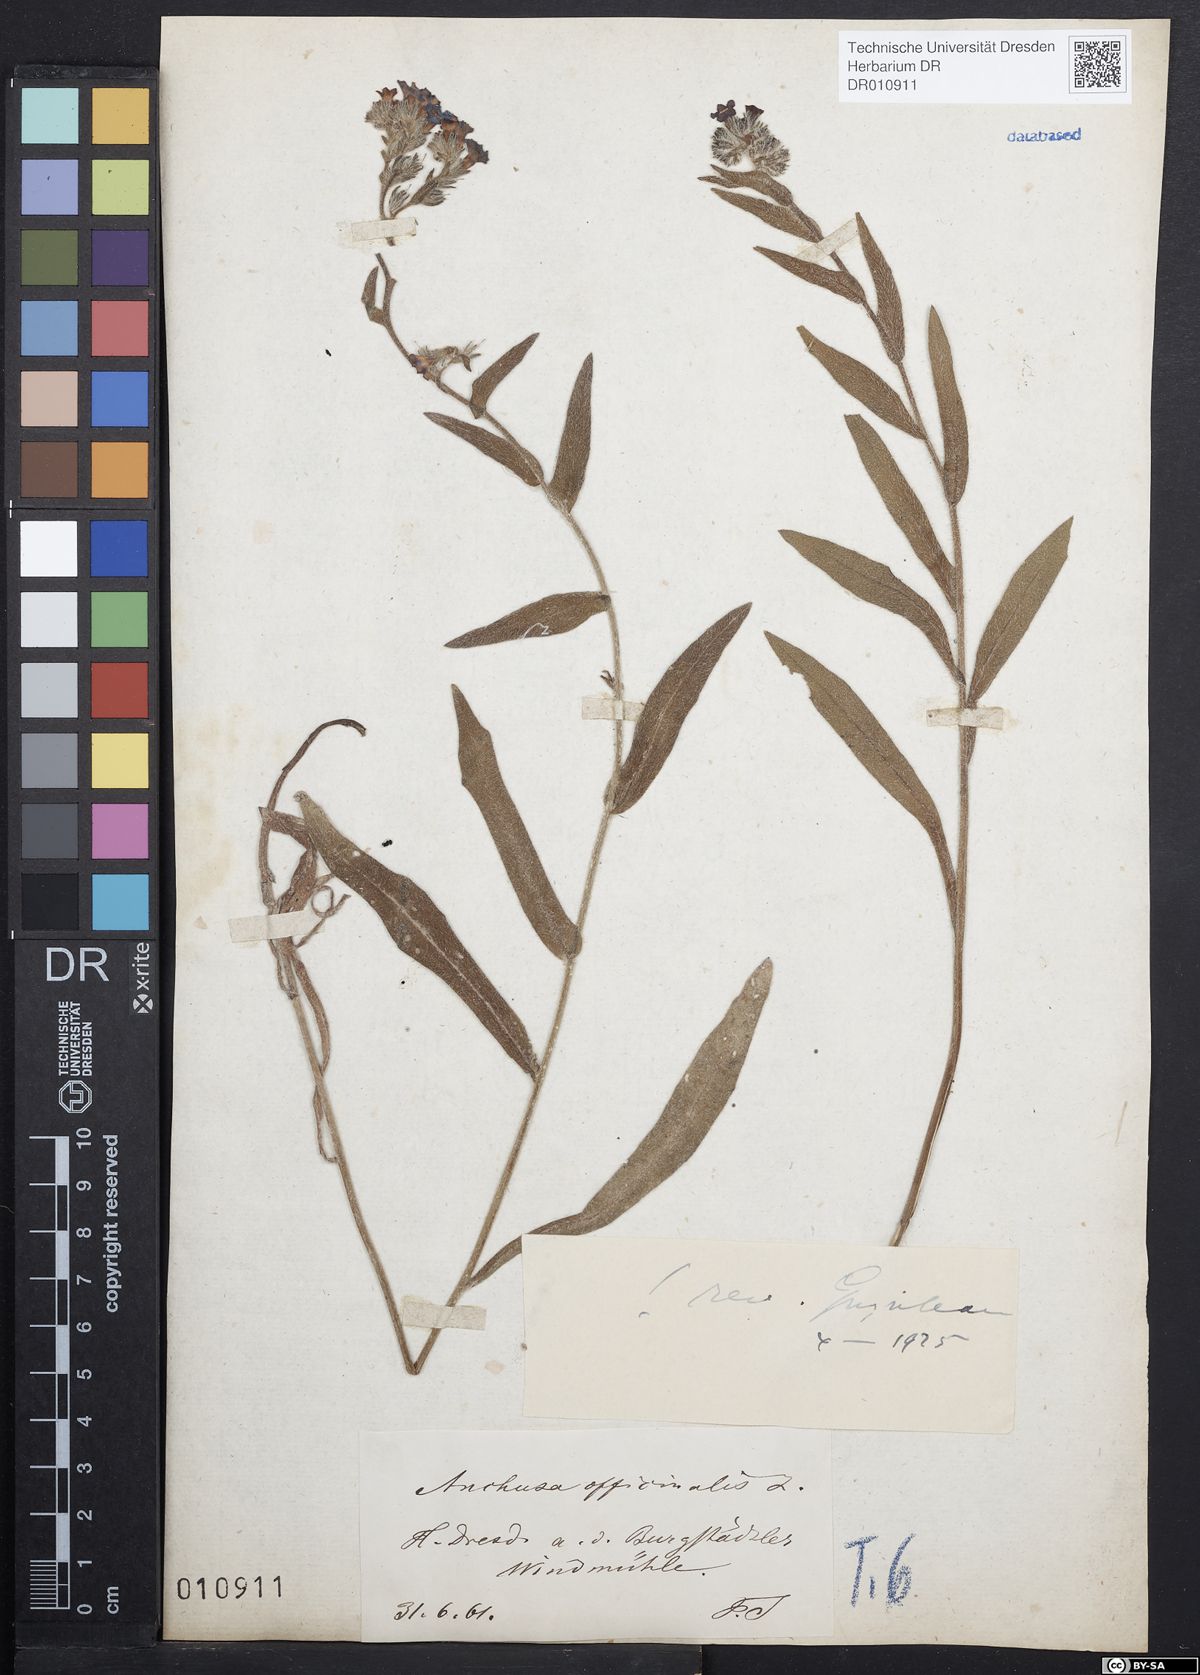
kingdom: Plantae
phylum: Tracheophyta
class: Magnoliopsida
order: Boraginales
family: Boraginaceae
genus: Anchusa
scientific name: Anchusa officinalis
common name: Alkanet
